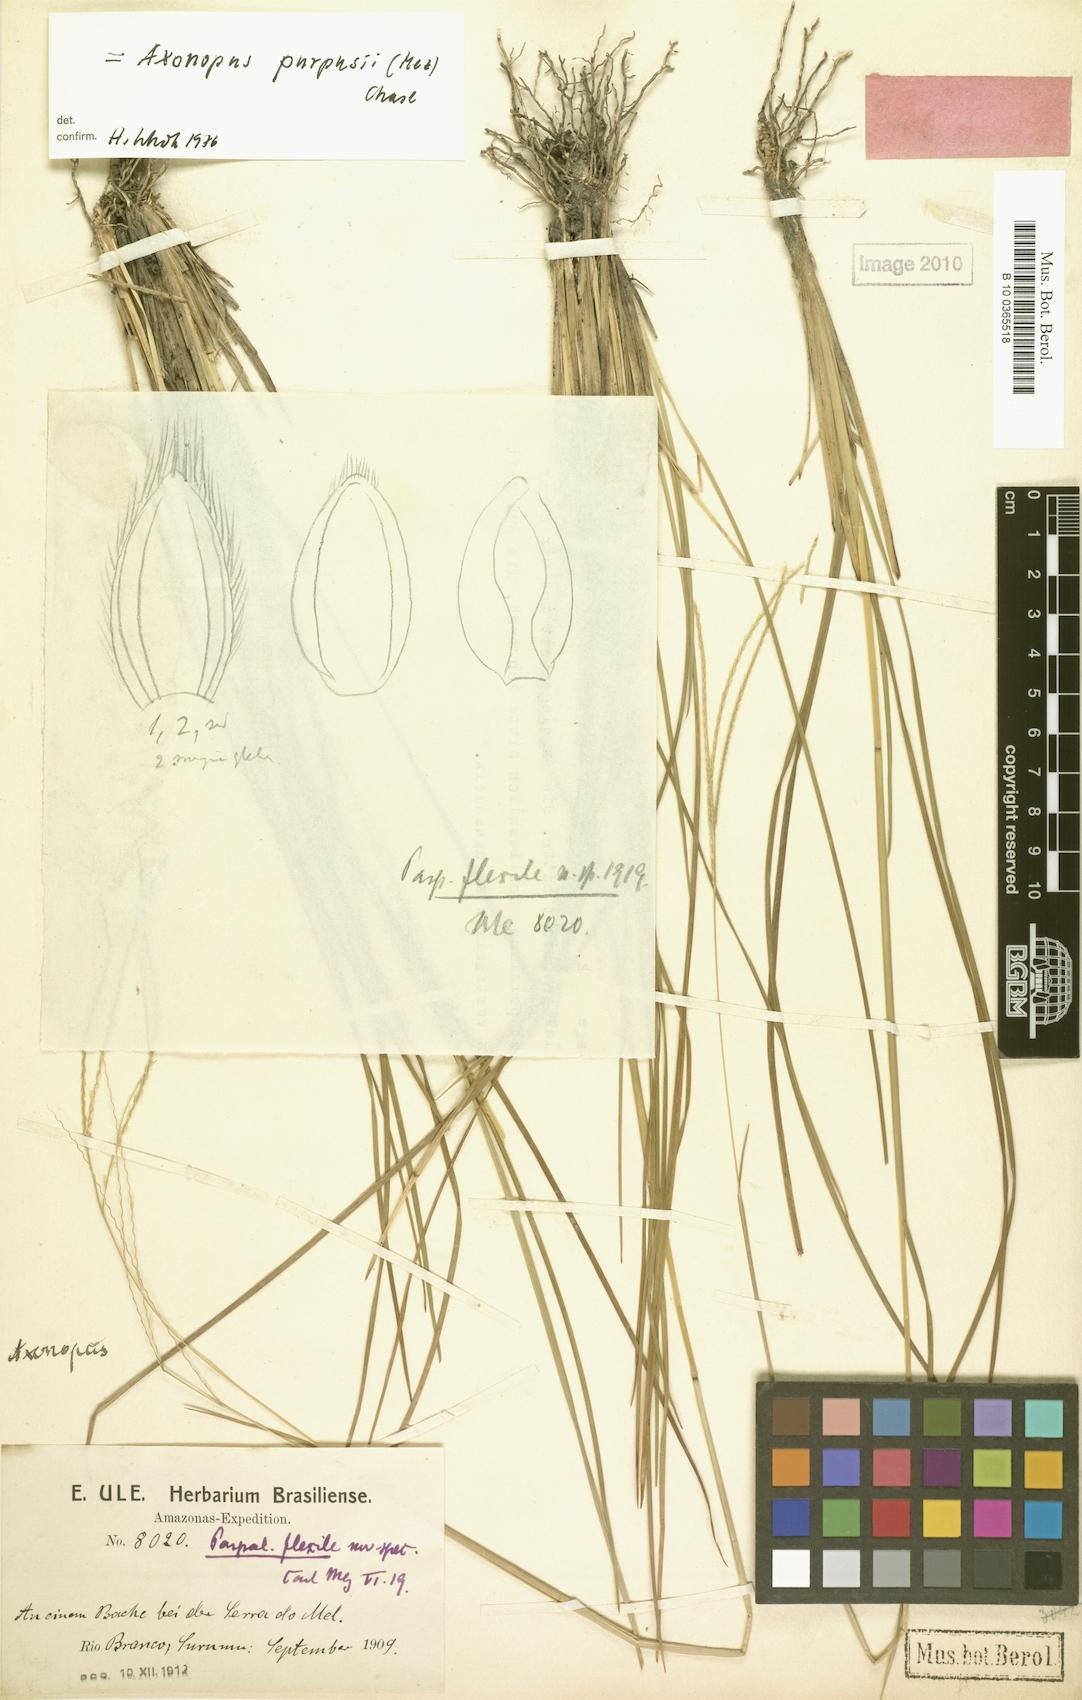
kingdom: Plantae
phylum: Tracheophyta
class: Liliopsida
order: Poales
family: Poaceae
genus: Axonopus
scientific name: Axonopus purpusii
